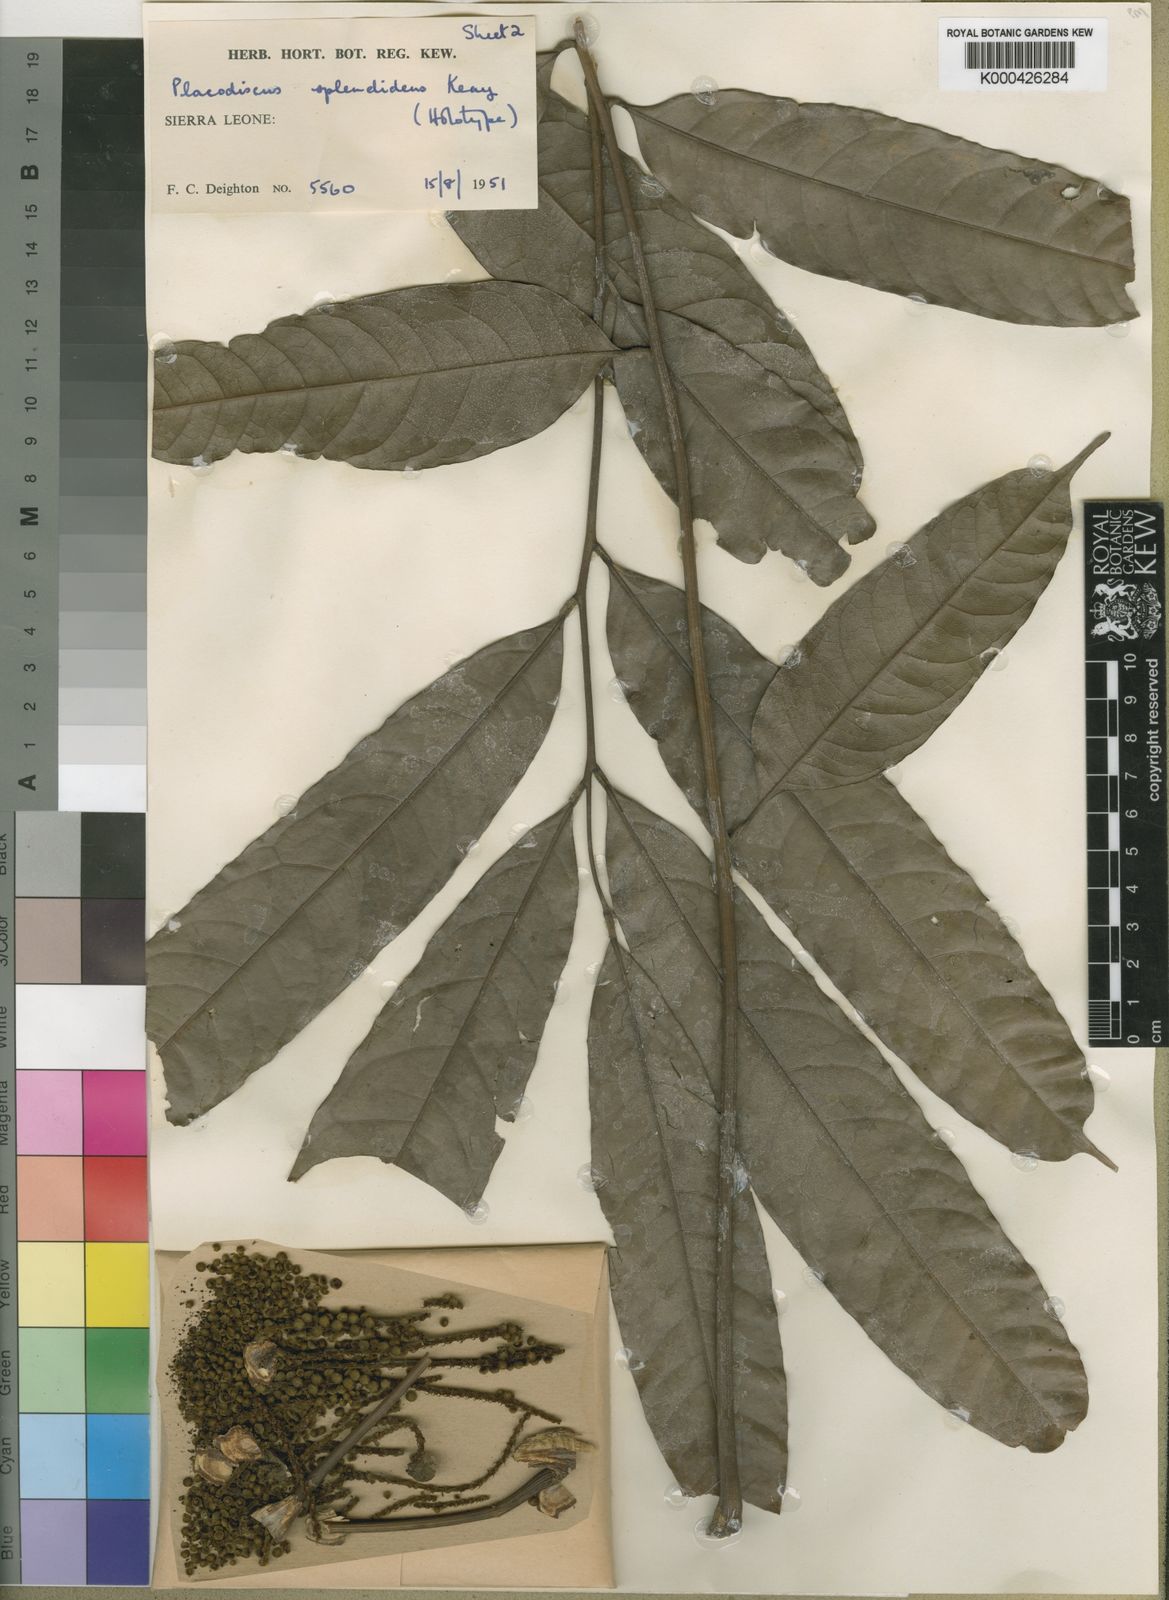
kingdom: Plantae
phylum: Tracheophyta
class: Magnoliopsida
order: Sapindales
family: Sapindaceae
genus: Placodiscus
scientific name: Placodiscus splendidus
